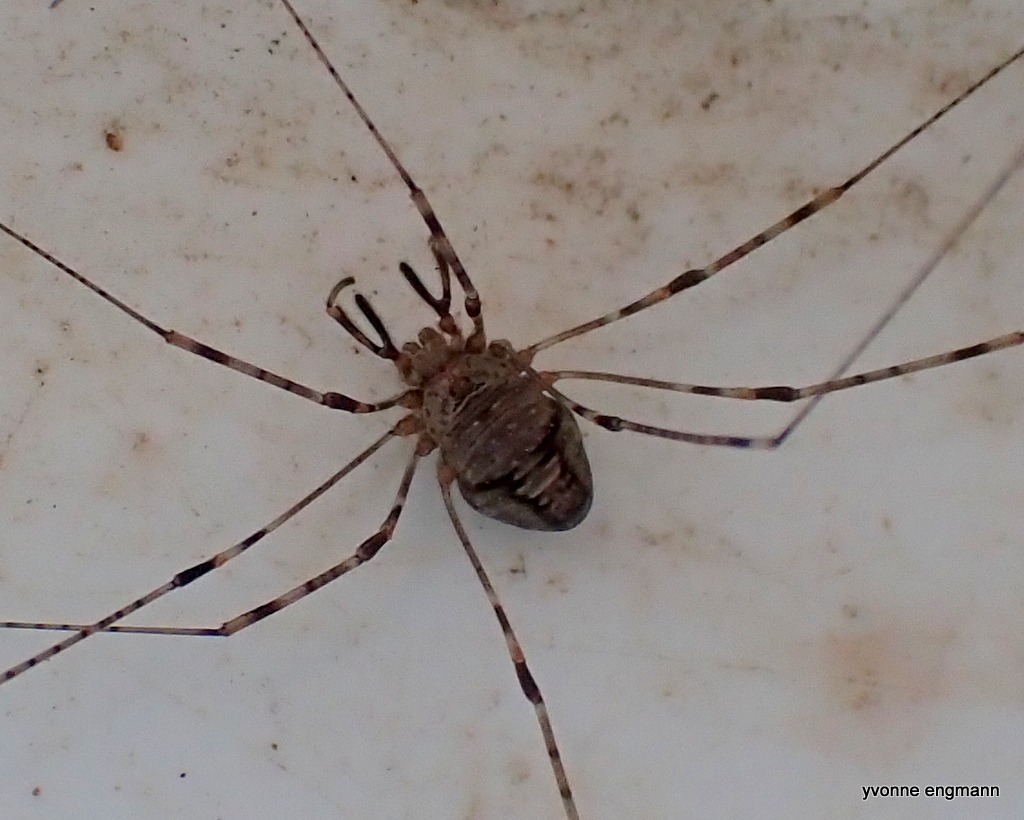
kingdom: Animalia
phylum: Arthropoda
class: Arachnida
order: Opiliones
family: Phalangiidae
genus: Dicranopalpus
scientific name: Dicranopalpus ramosus
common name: Gaffelmejer
